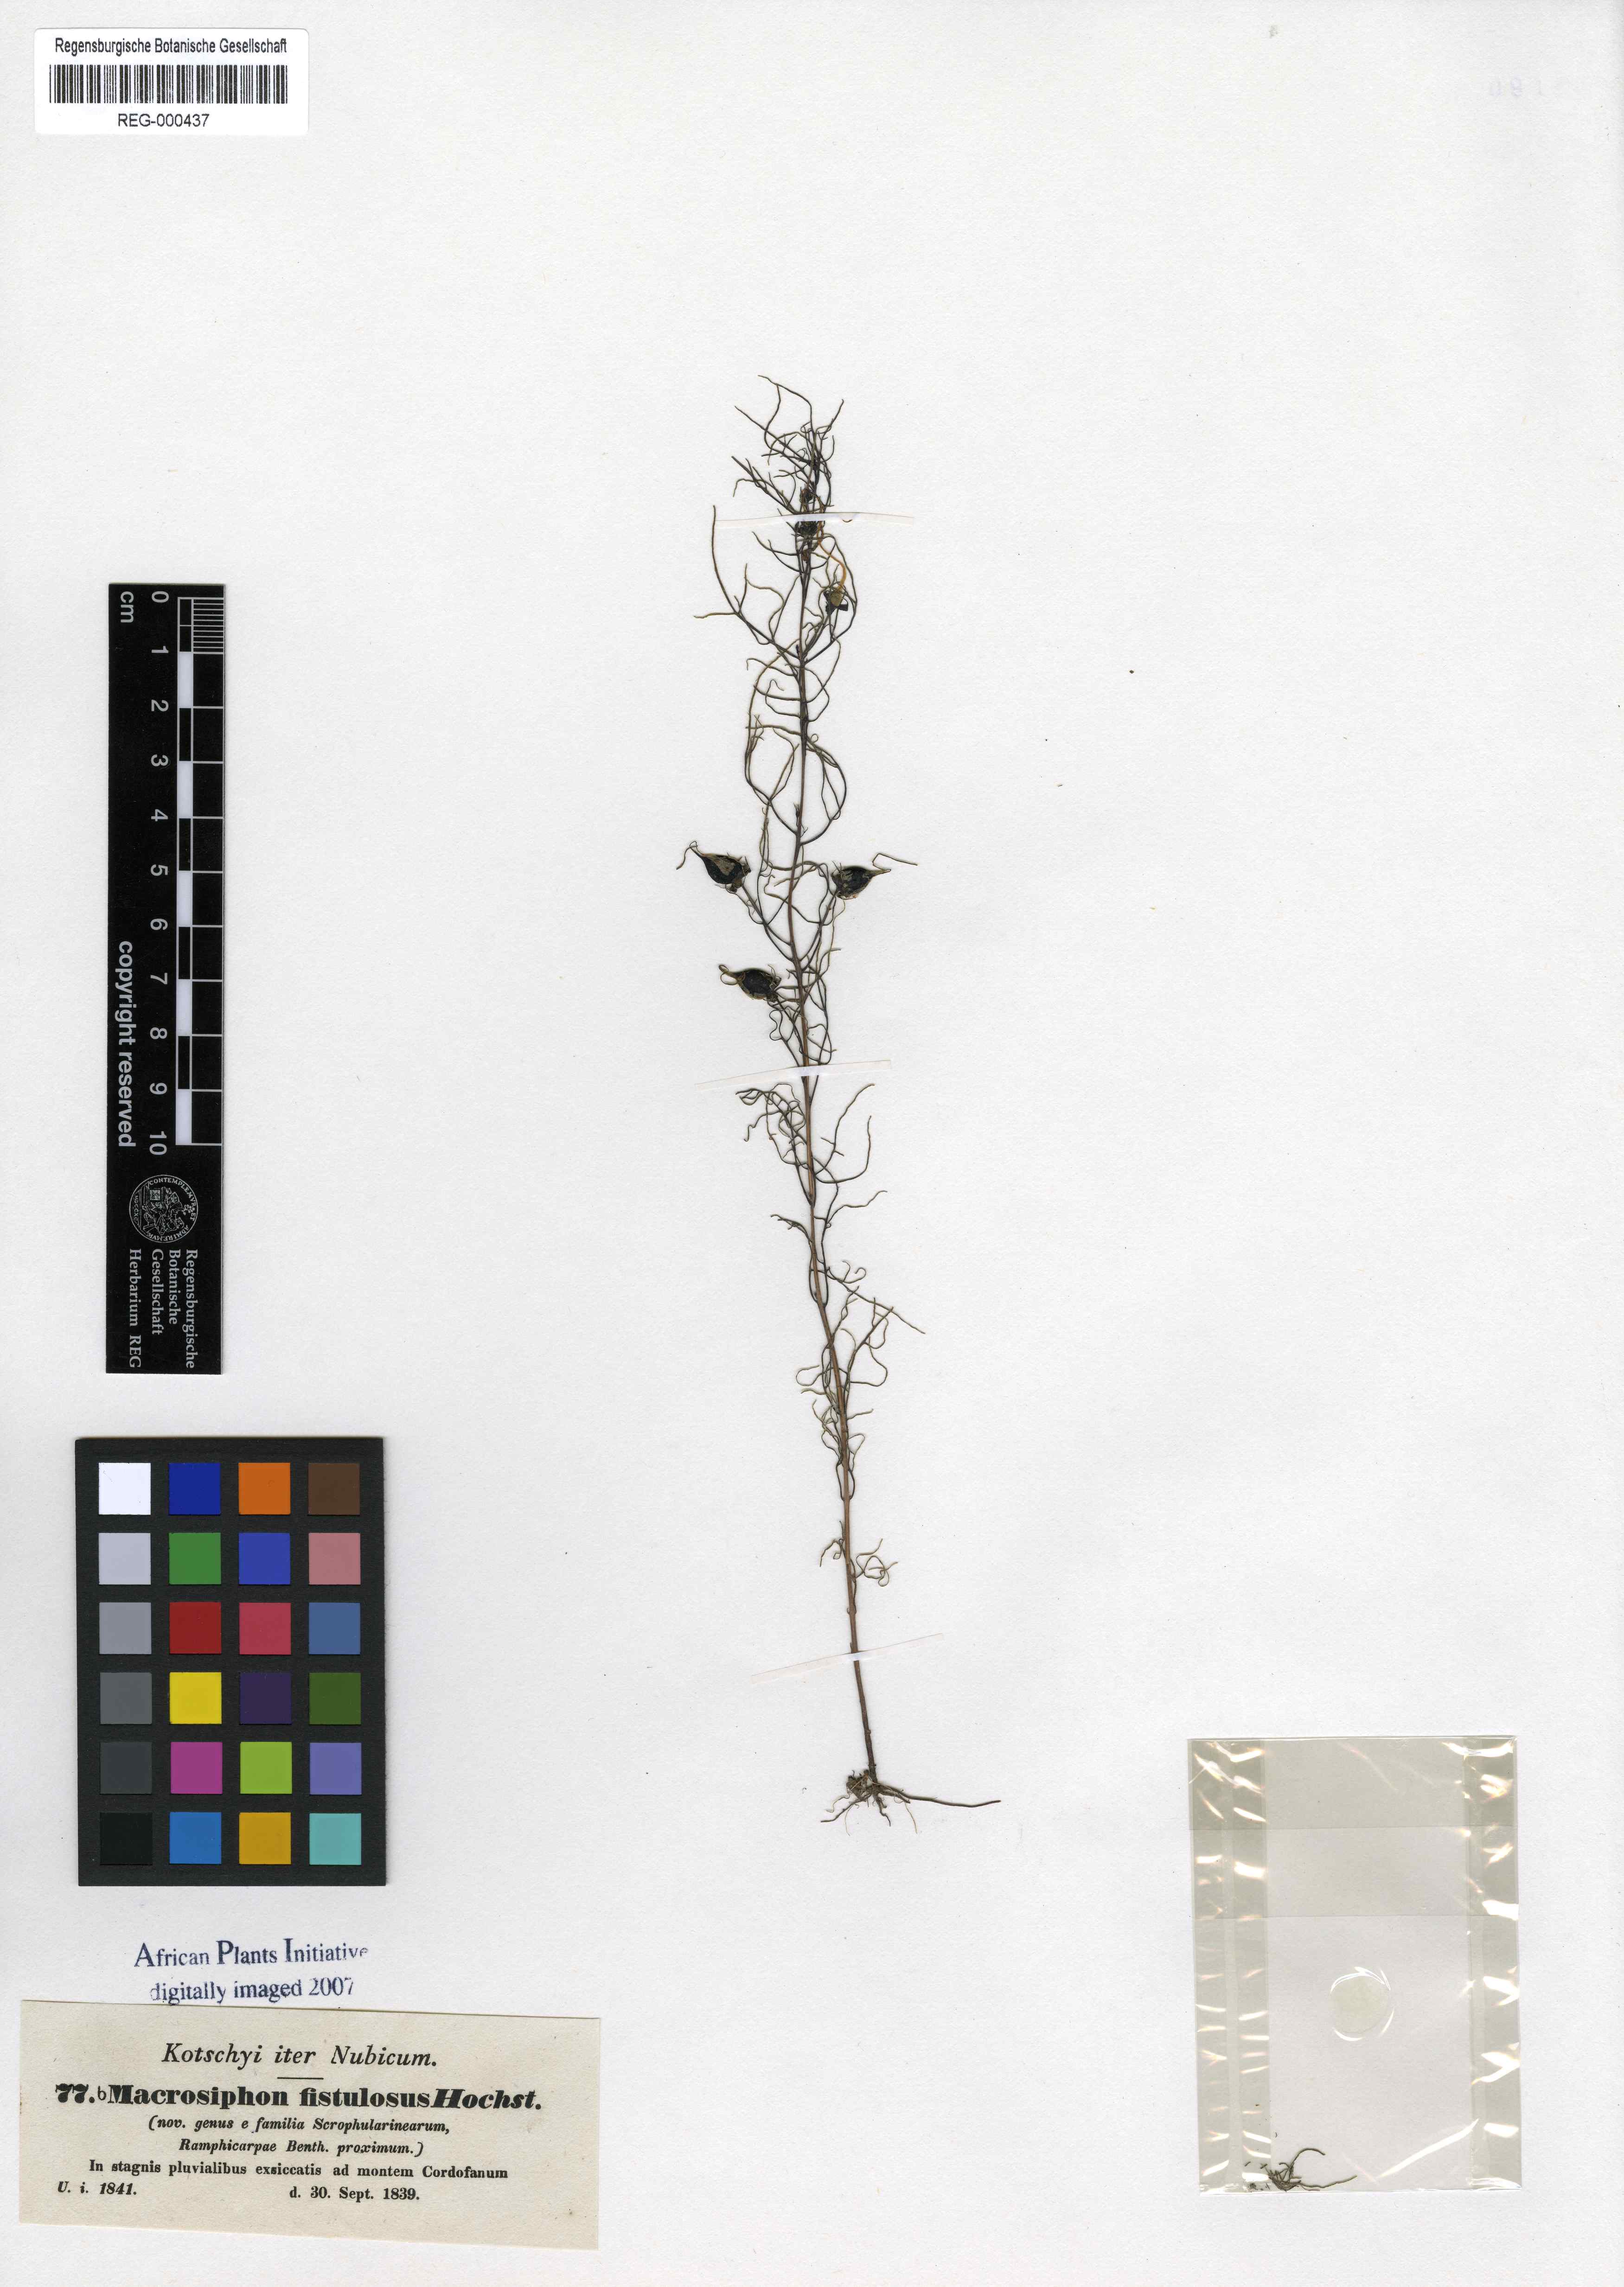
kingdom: Plantae
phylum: Tracheophyta
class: Magnoliopsida
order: Lamiales
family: Orobanchaceae
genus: Rhamphicarpa
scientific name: Rhamphicarpa fistulosa
